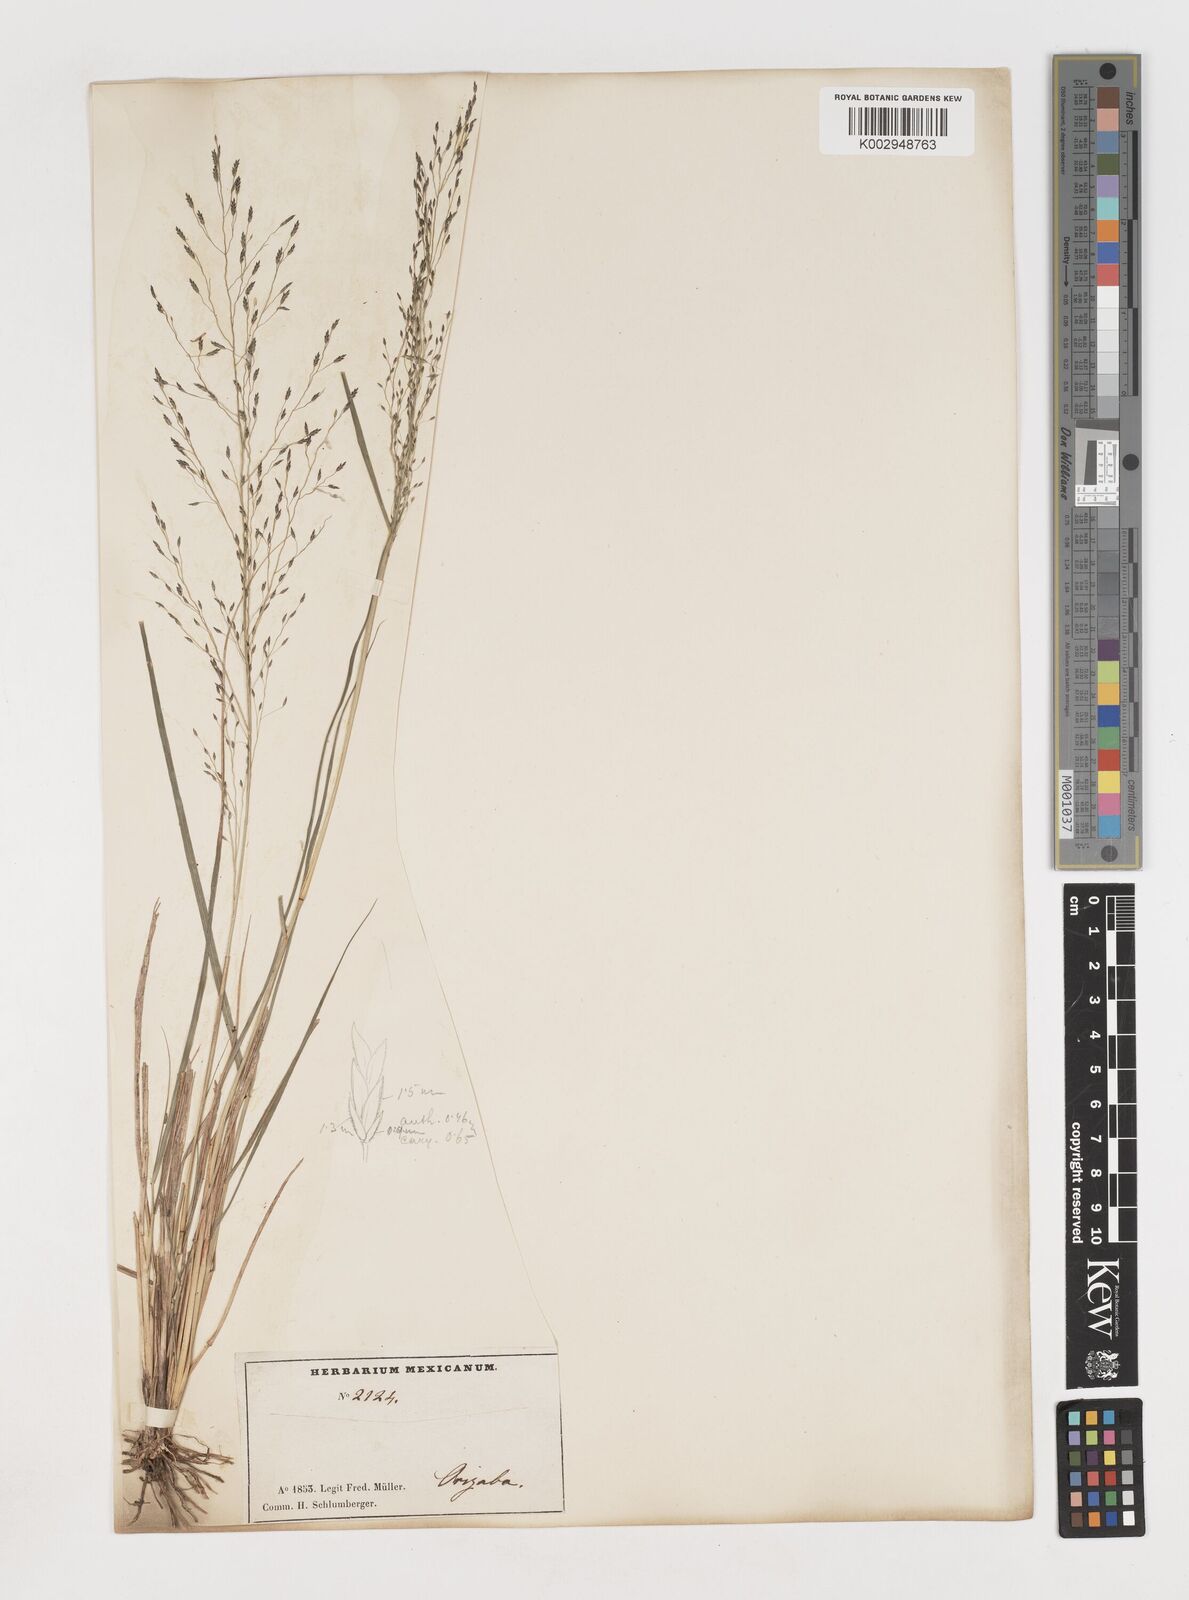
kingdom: Plantae
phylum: Tracheophyta
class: Liliopsida
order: Poales
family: Poaceae
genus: Eragrostis
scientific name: Eragrostis
